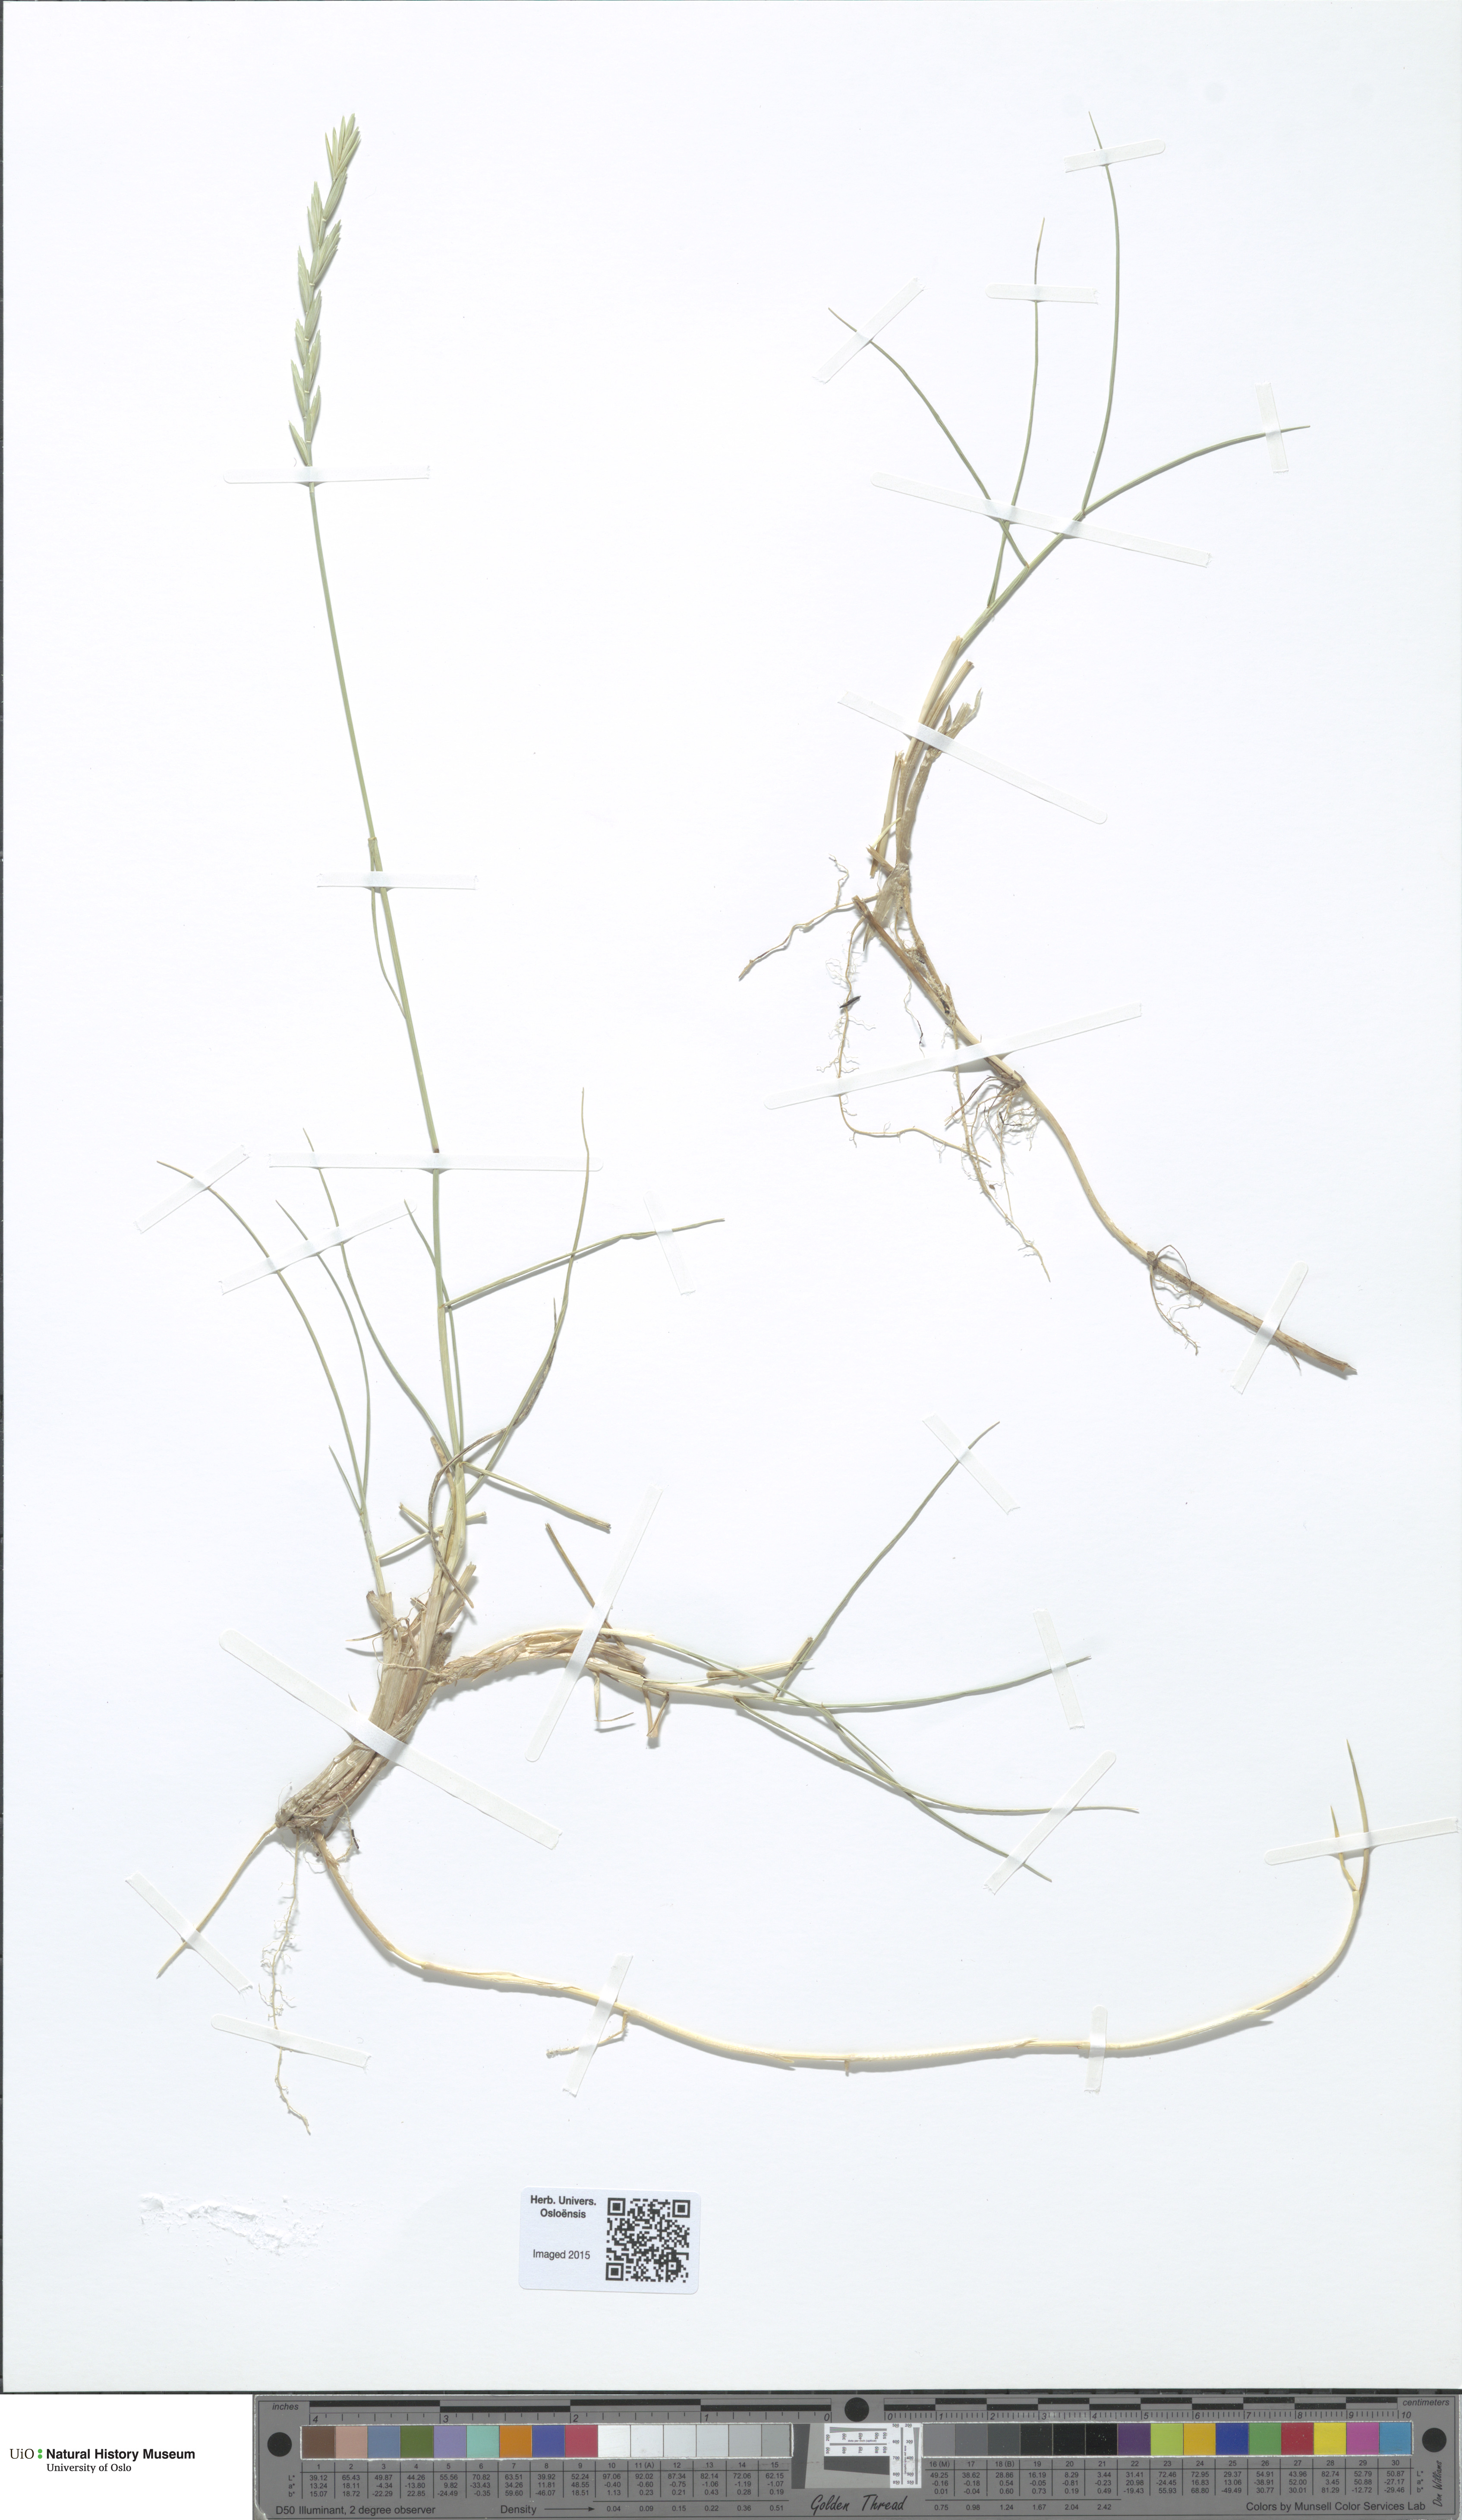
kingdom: Plantae
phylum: Tracheophyta
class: Liliopsida
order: Poales
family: Poaceae
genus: Thinopyrum
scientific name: Thinopyrum junceiforme
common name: Sea couch
